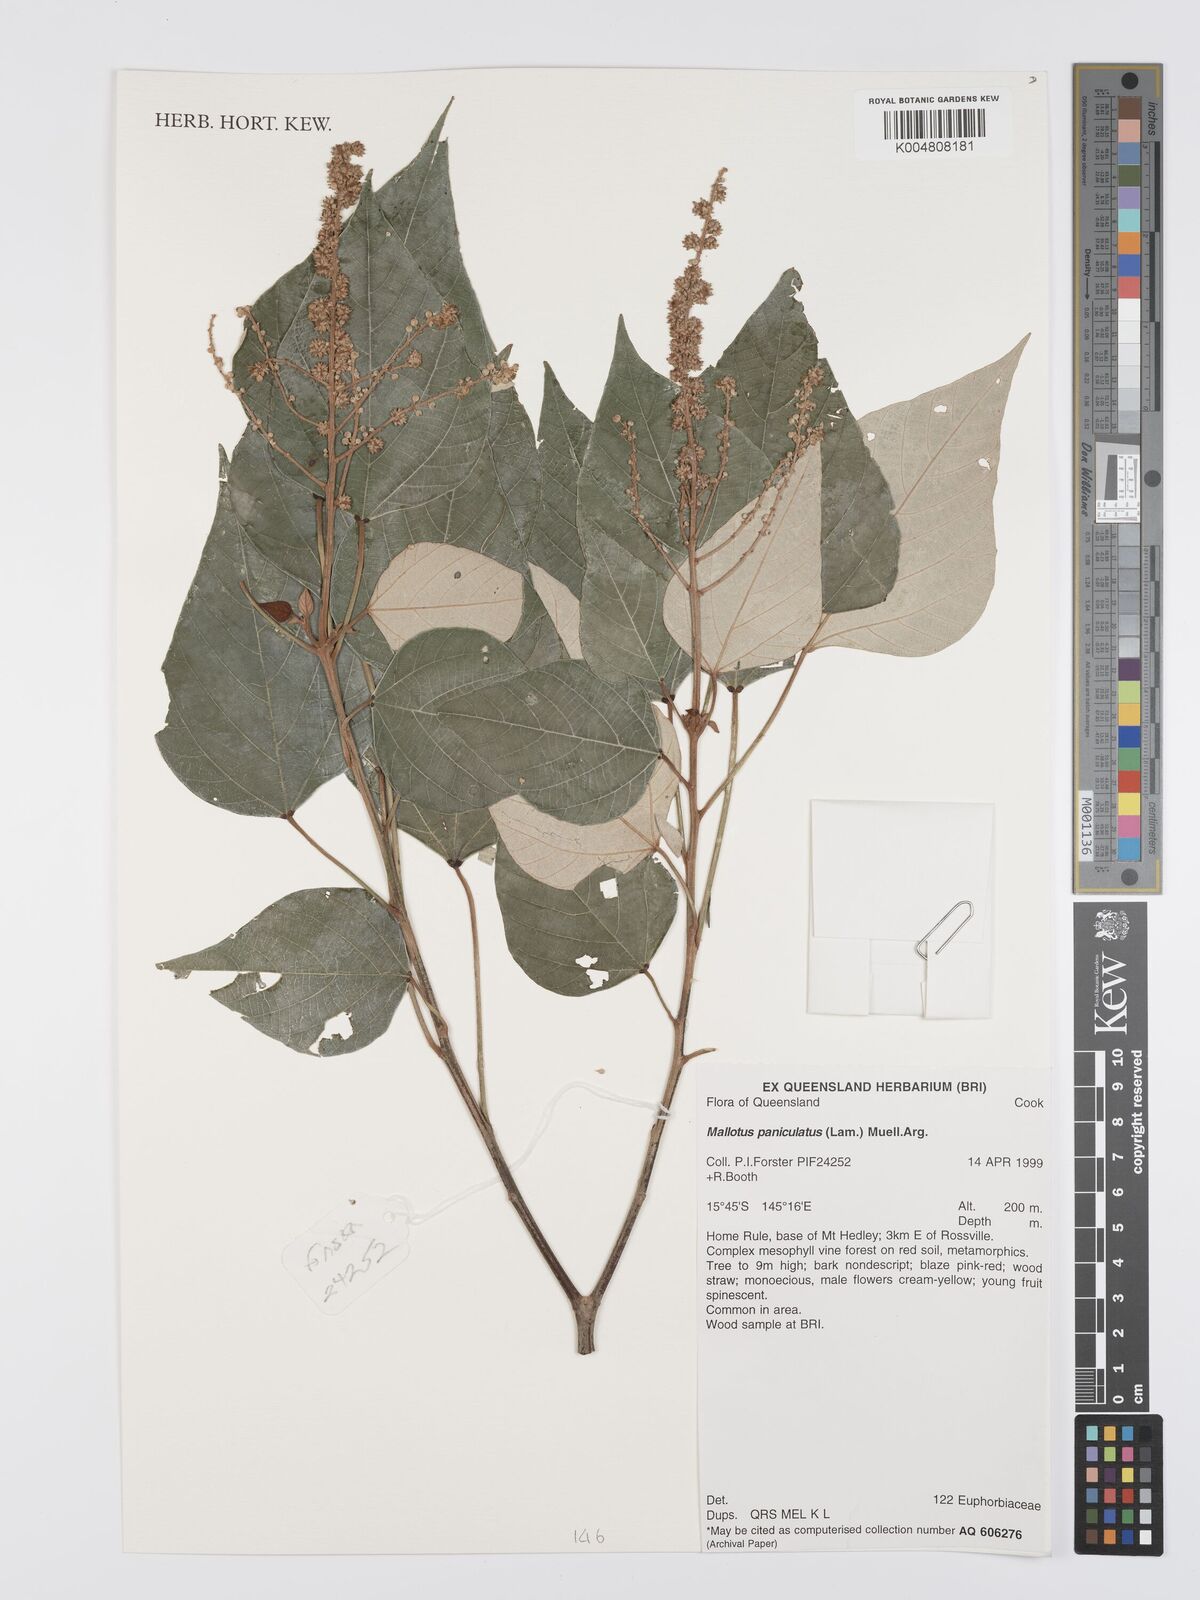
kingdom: Plantae
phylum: Tracheophyta
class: Magnoliopsida
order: Malpighiales
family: Euphorbiaceae
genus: Mallotus
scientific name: Mallotus paniculatus
